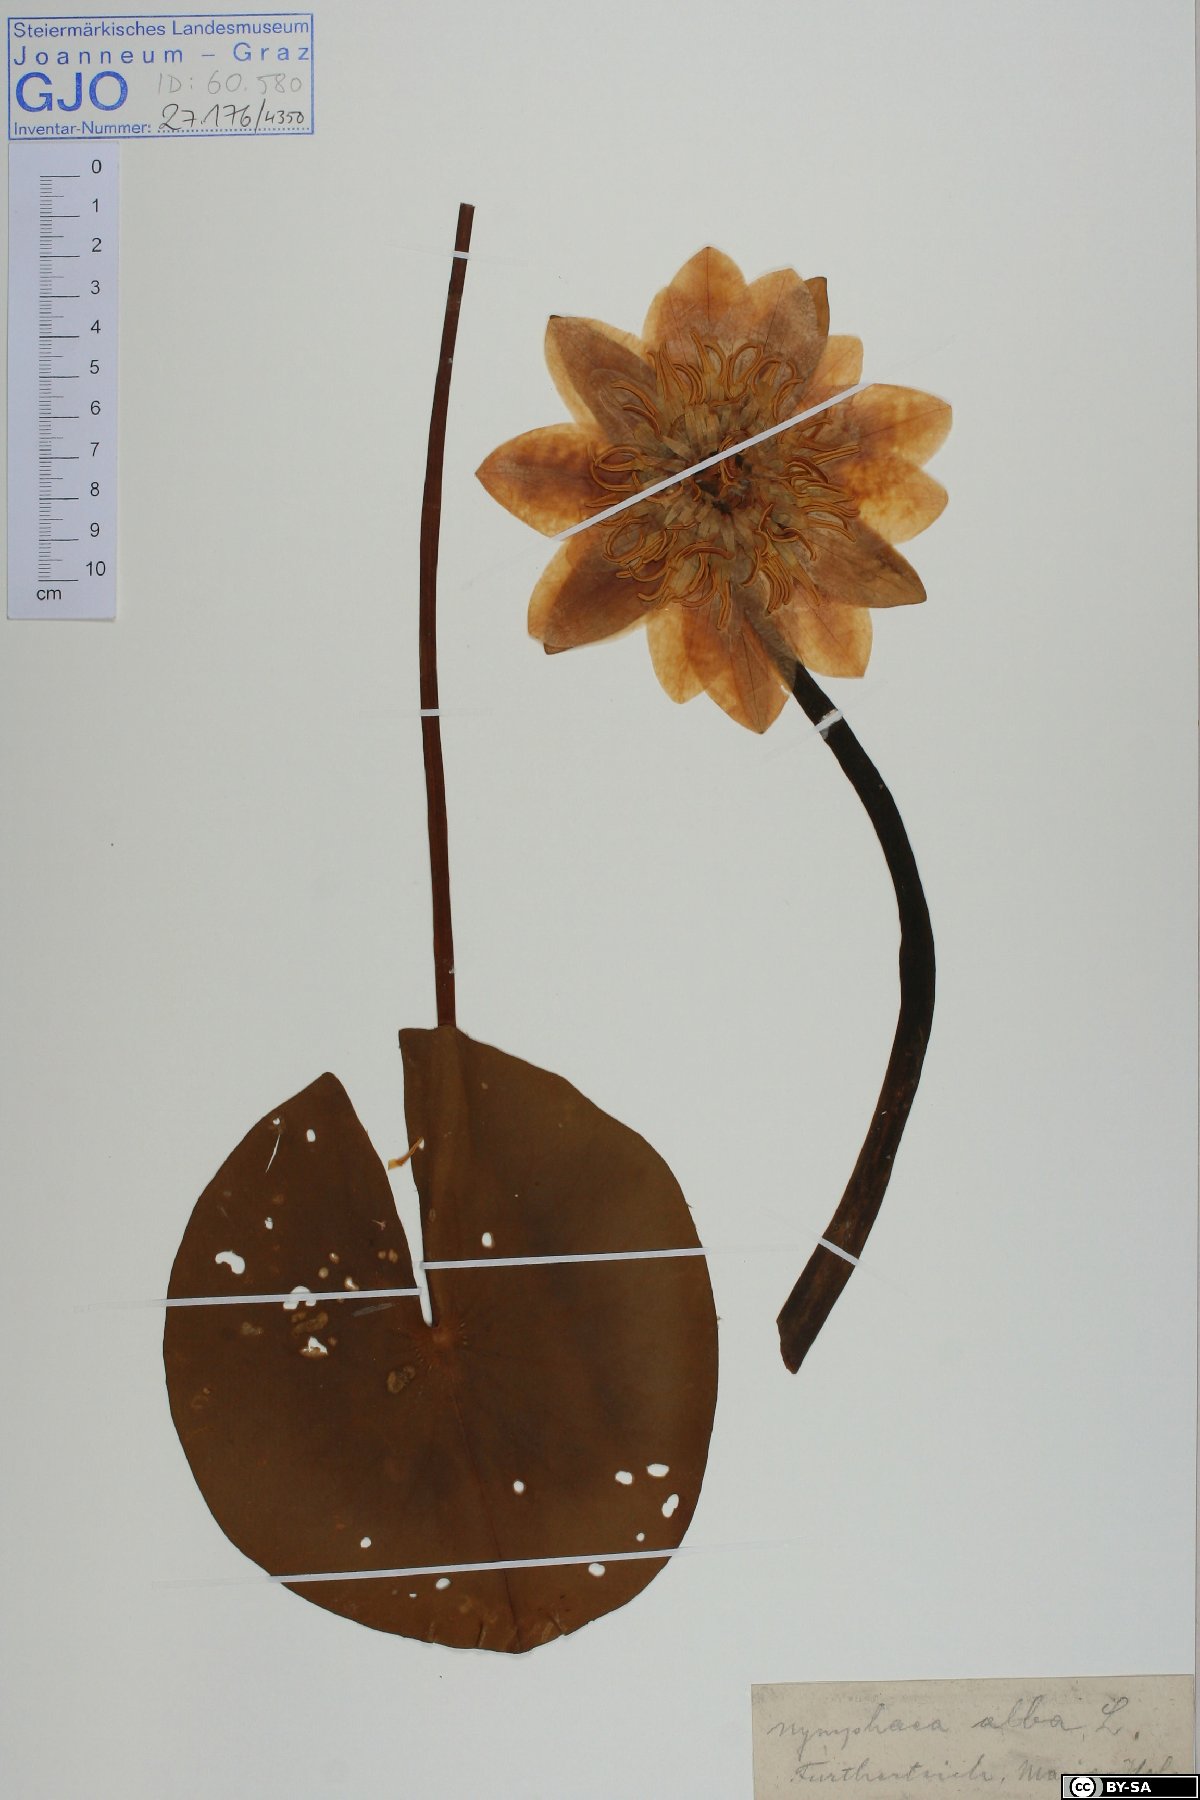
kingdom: Plantae
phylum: Tracheophyta
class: Magnoliopsida
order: Nymphaeales
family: Nymphaeaceae
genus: Nymphaea
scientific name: Nymphaea alba
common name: White water-lily
